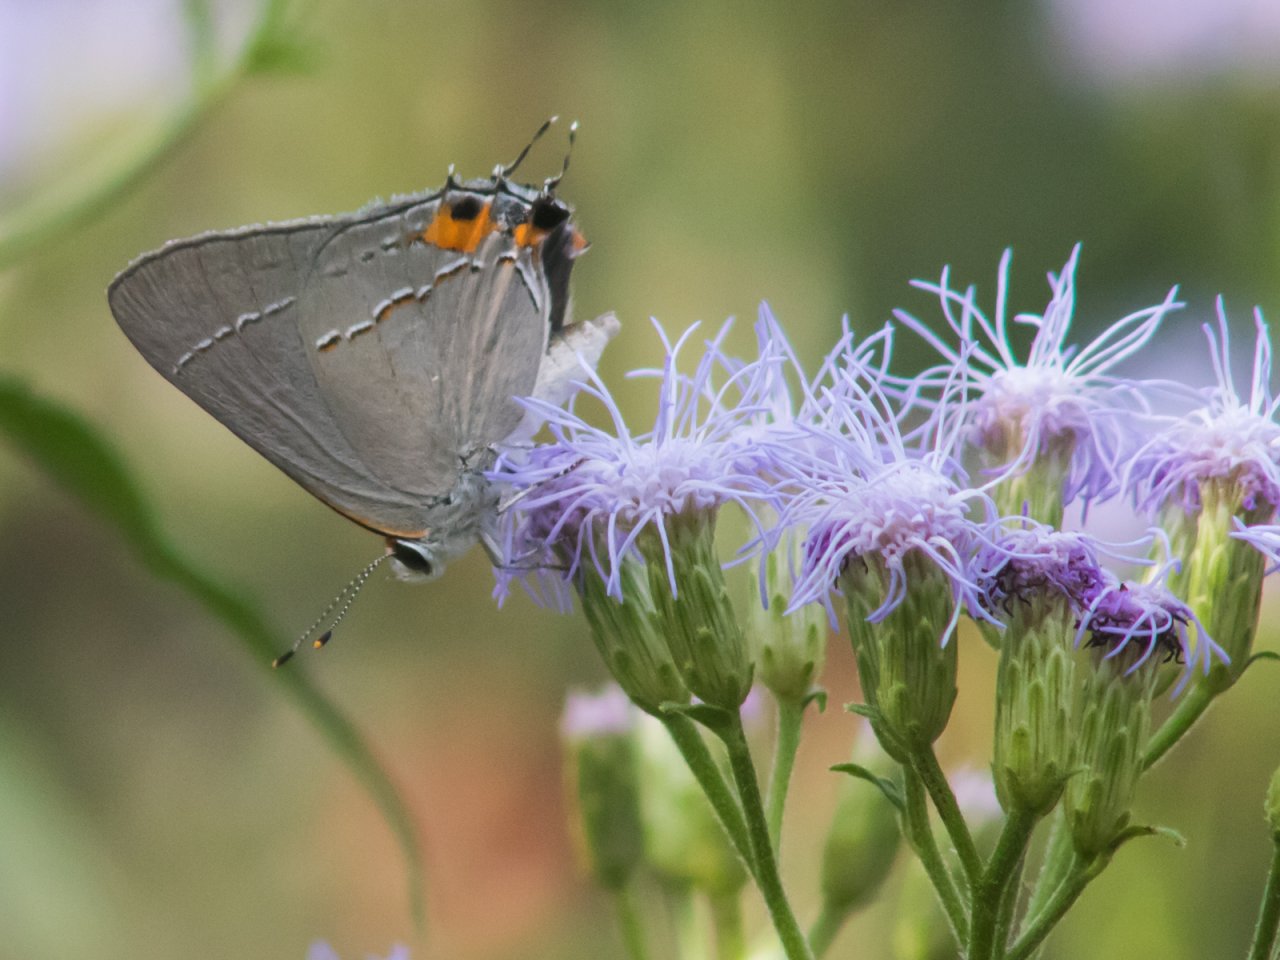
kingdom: Animalia
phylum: Arthropoda
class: Insecta
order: Lepidoptera
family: Lycaenidae
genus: Strymon
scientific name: Strymon melinus
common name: Gray Hairstreak
